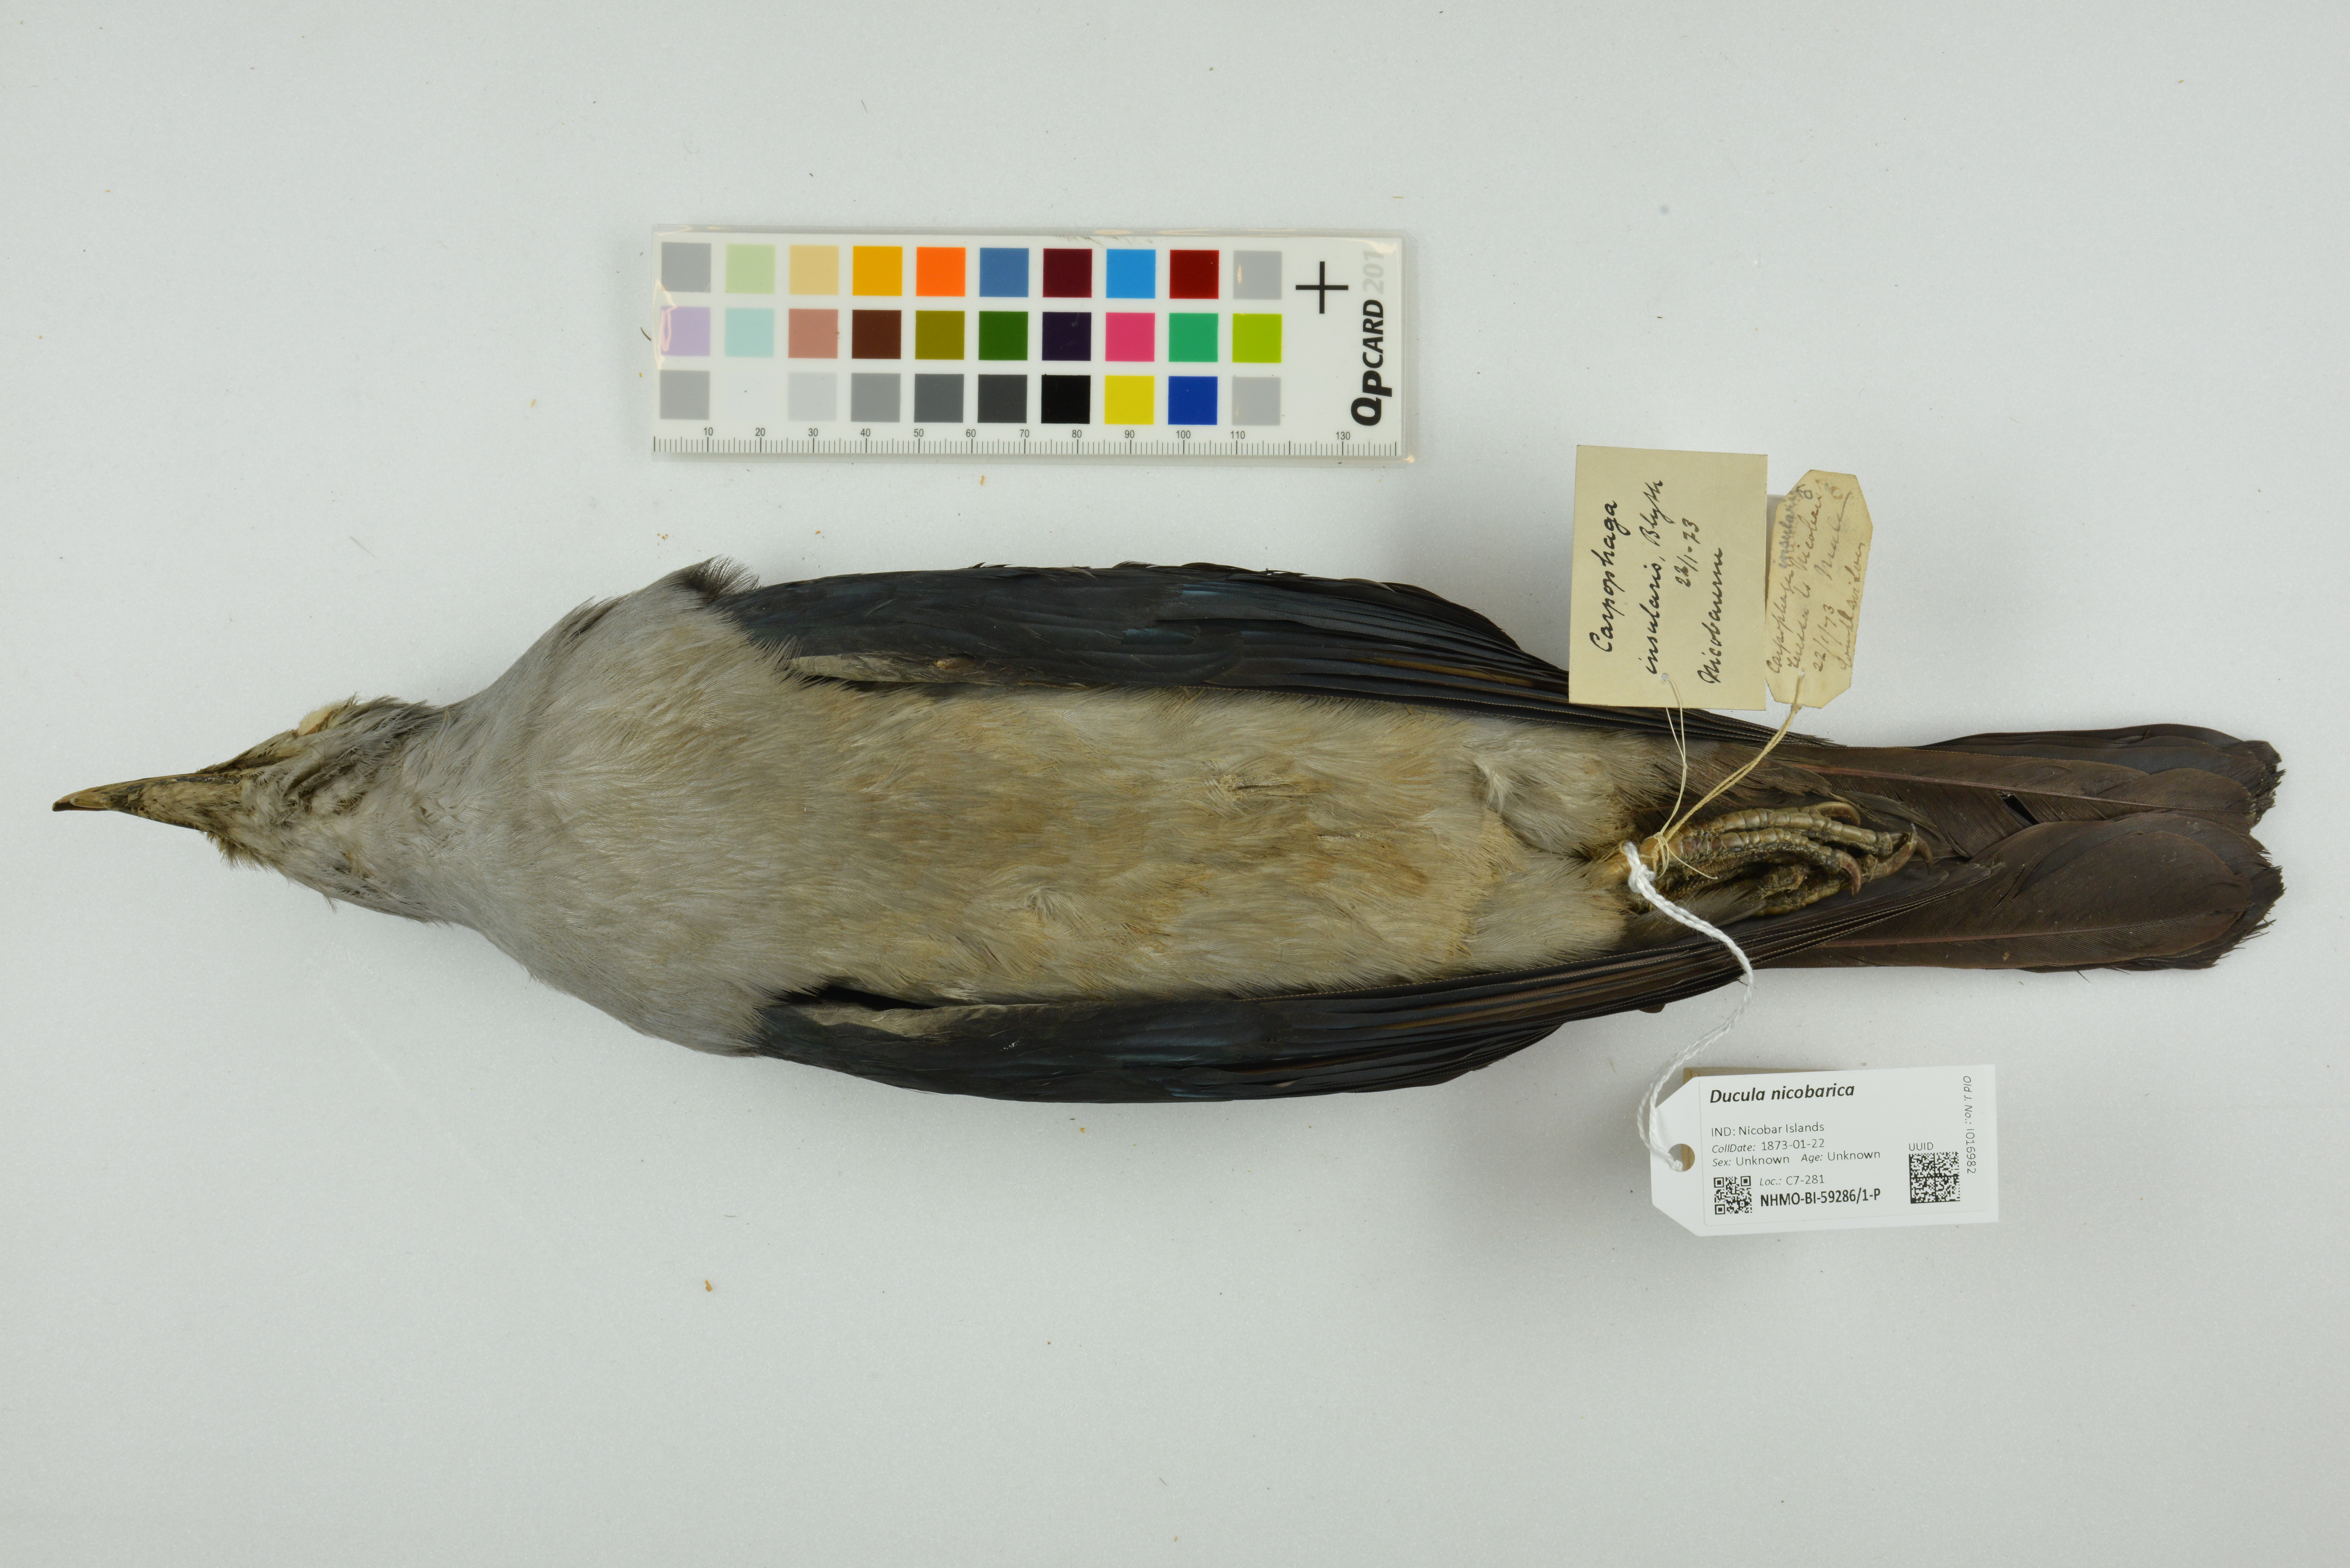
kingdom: Animalia
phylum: Chordata
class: Aves
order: Columbiformes
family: Columbidae
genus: Ducula
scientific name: Ducula nicobarica
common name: Nicobar imperial pigeon
